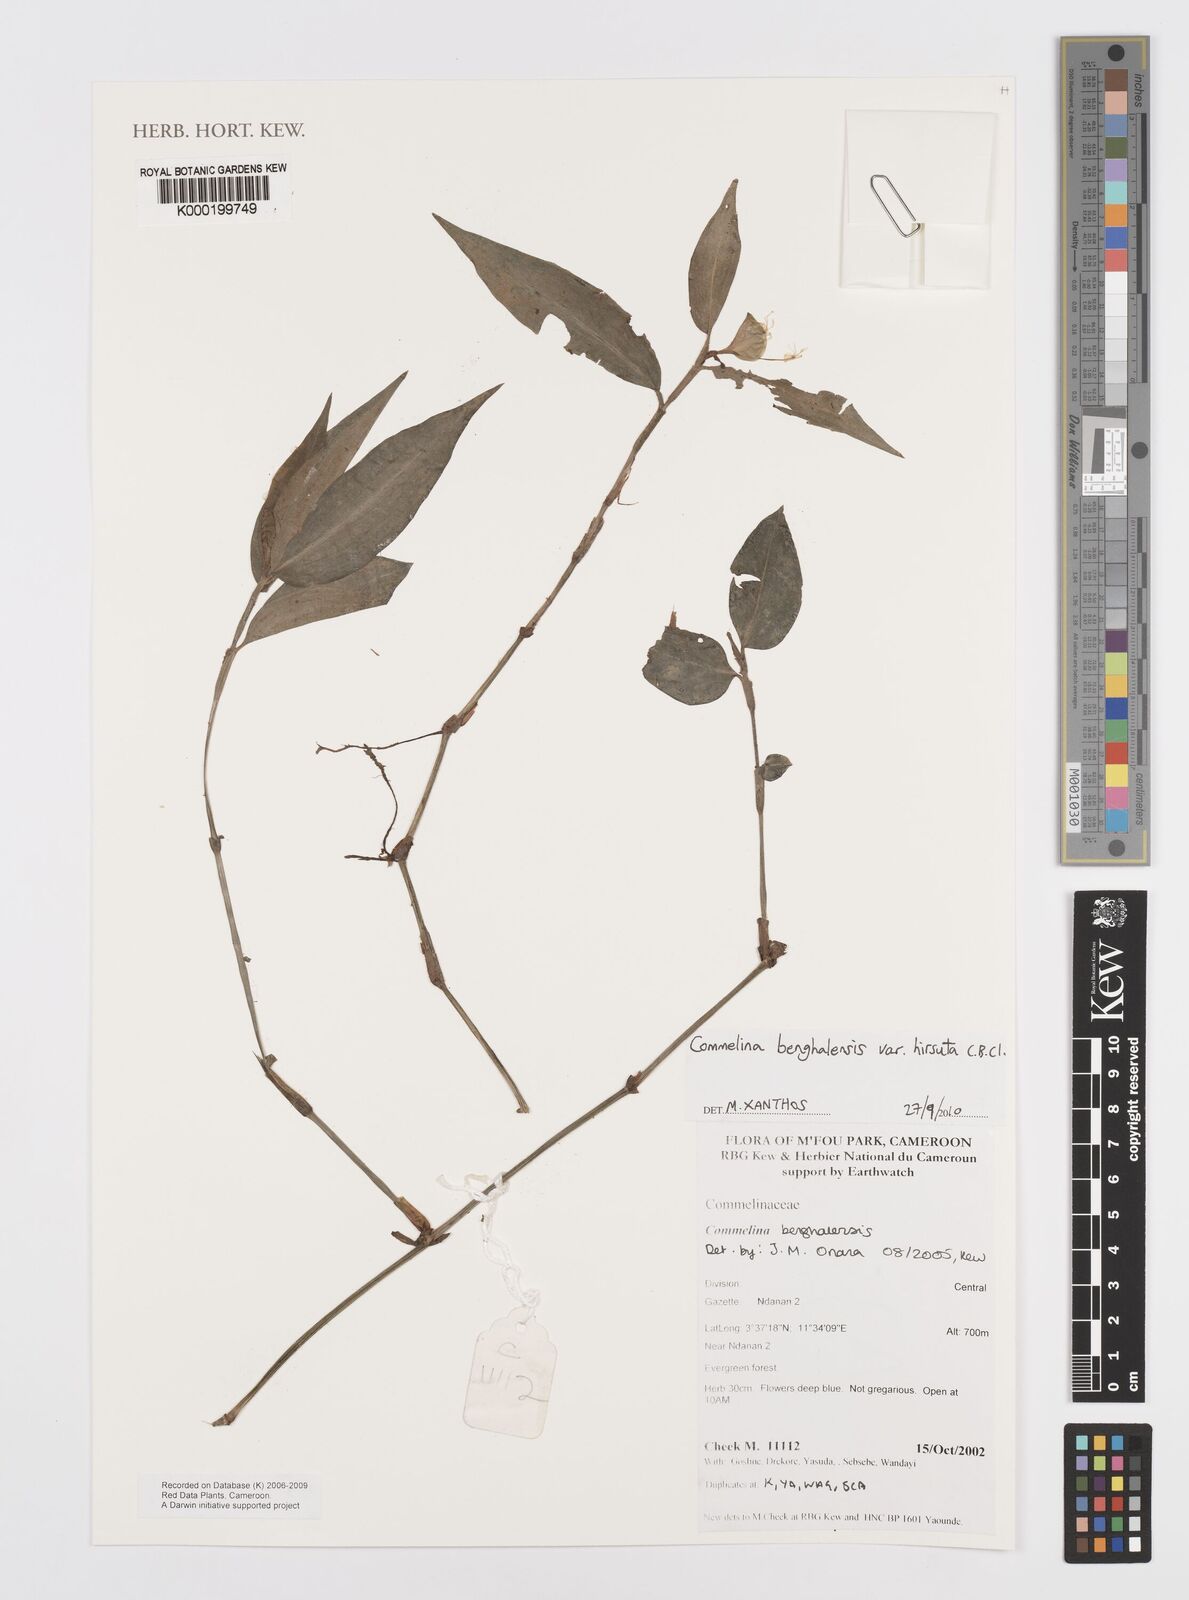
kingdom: Plantae
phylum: Tracheophyta
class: Liliopsida
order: Commelinales
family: Commelinaceae
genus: Commelina
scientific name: Commelina benghalensis
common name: Jio
